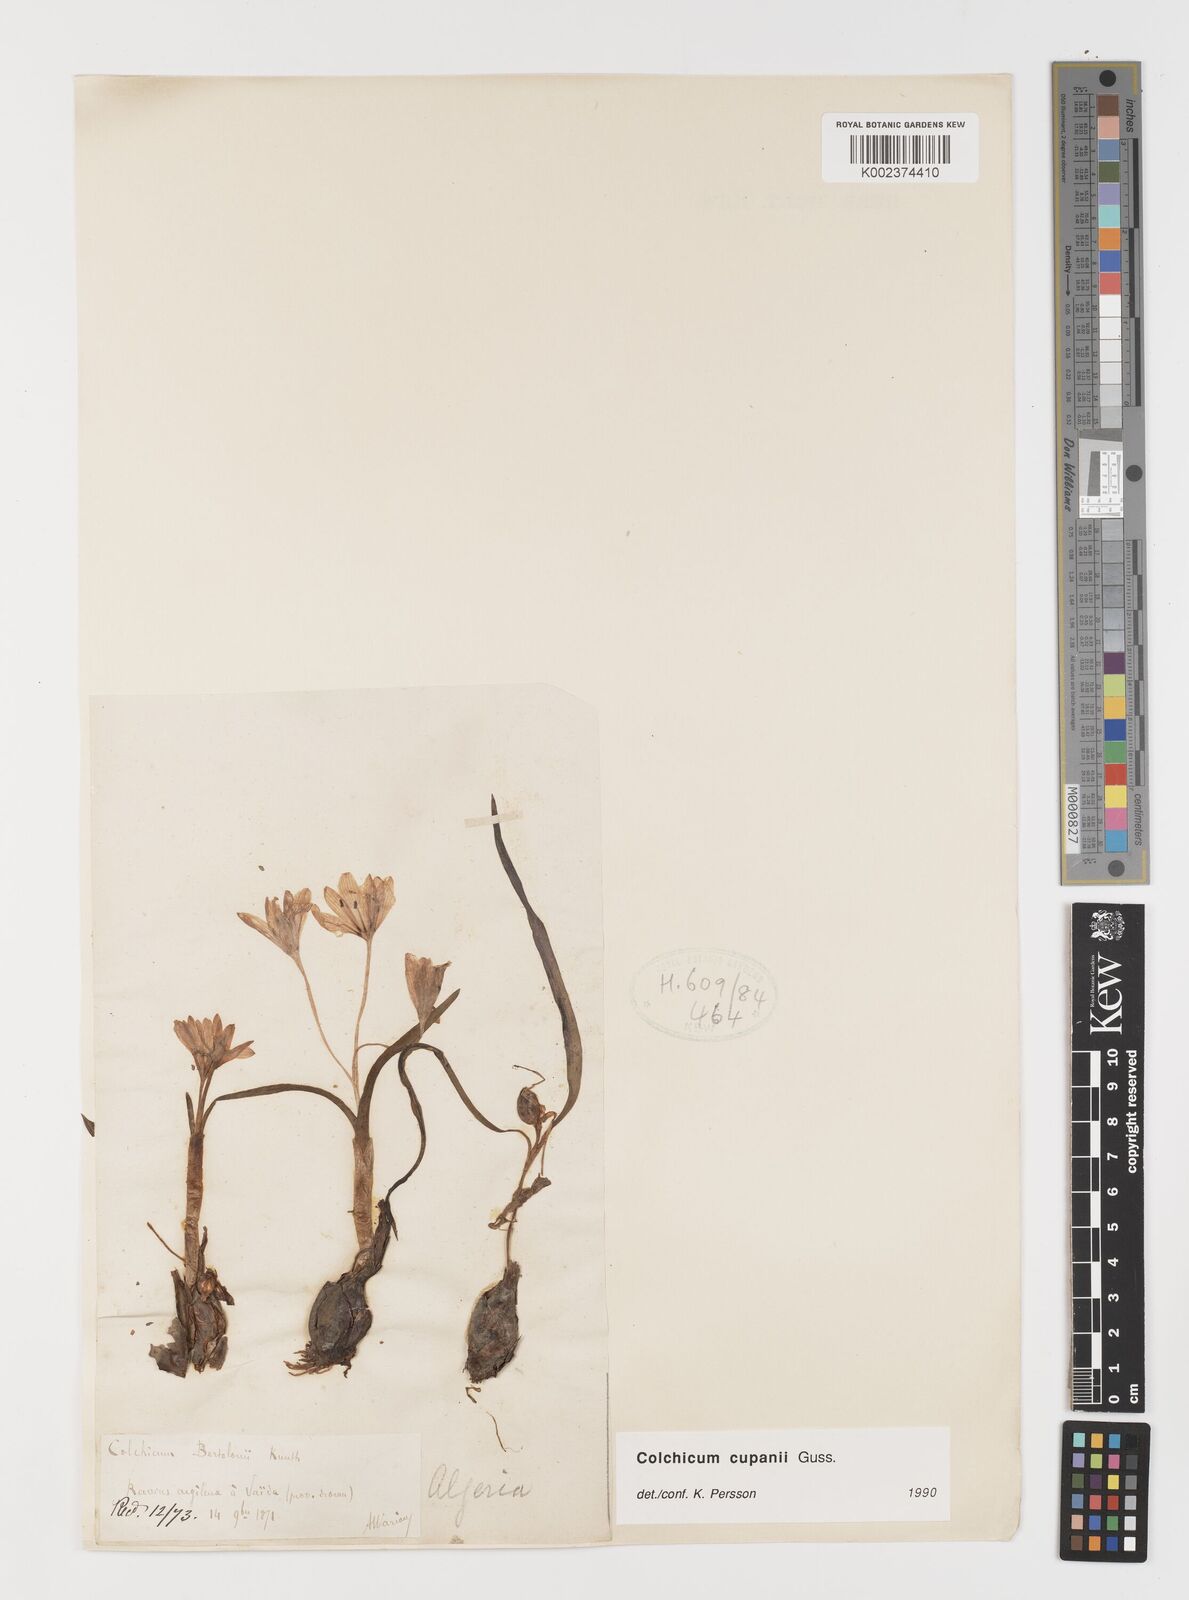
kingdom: Plantae
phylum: Tracheophyta
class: Liliopsida
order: Liliales
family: Colchicaceae
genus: Colchicum
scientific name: Colchicum cupanii
